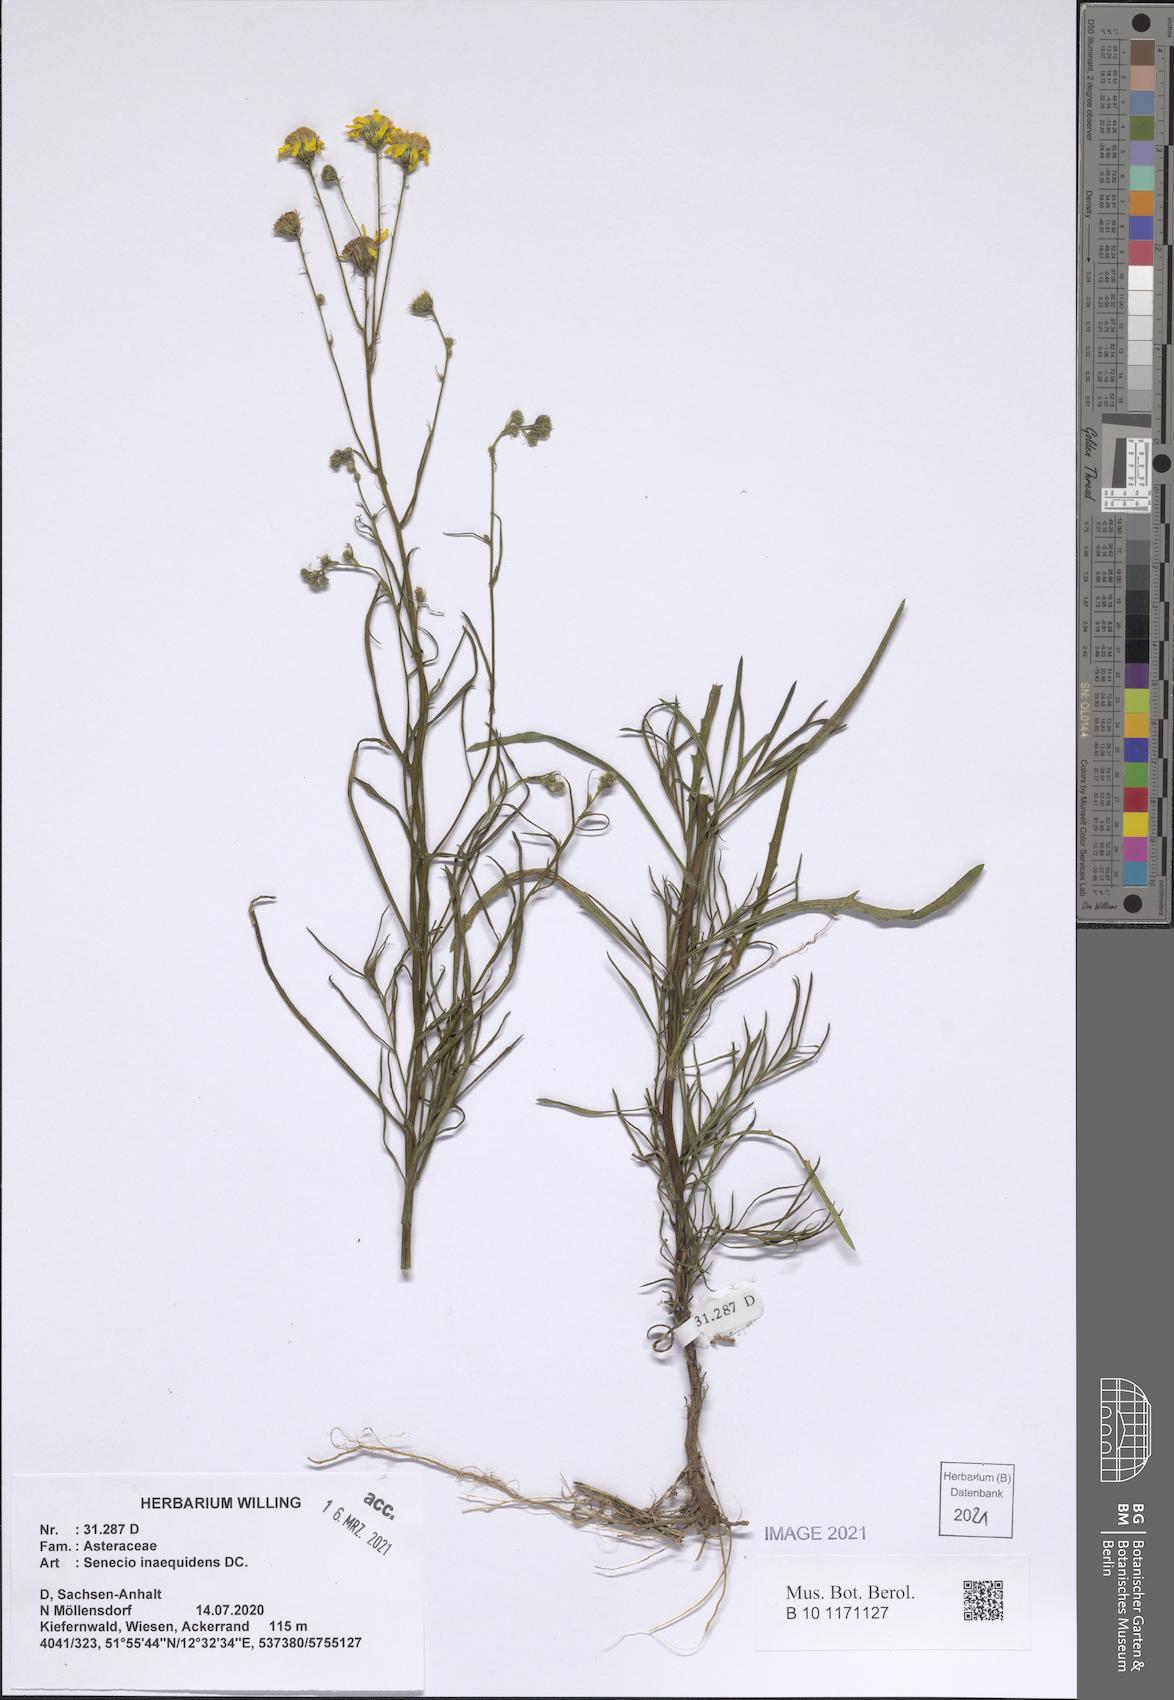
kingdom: Plantae
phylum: Tracheophyta
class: Magnoliopsida
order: Asterales
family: Asteraceae
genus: Senecio
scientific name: Senecio inaequidens
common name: Narrow-leaved ragwort
